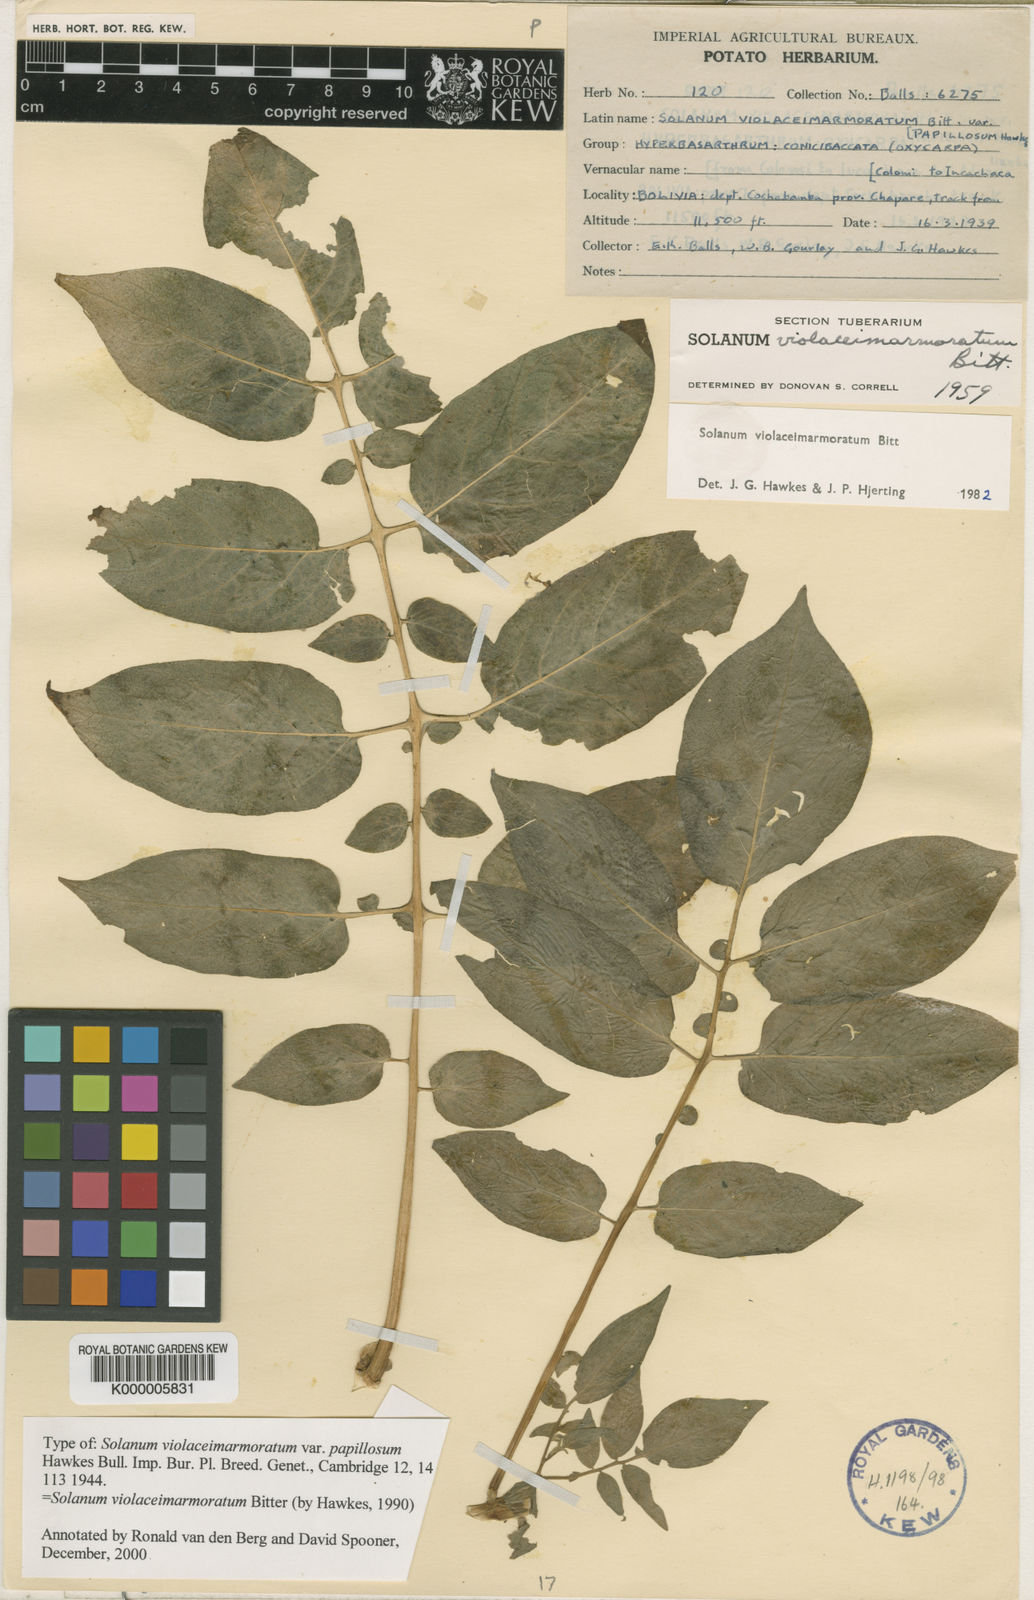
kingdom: Plantae
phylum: Tracheophyta
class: Magnoliopsida
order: Solanales
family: Solanaceae
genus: Solanum
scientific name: Solanum violaceimarmoratum
